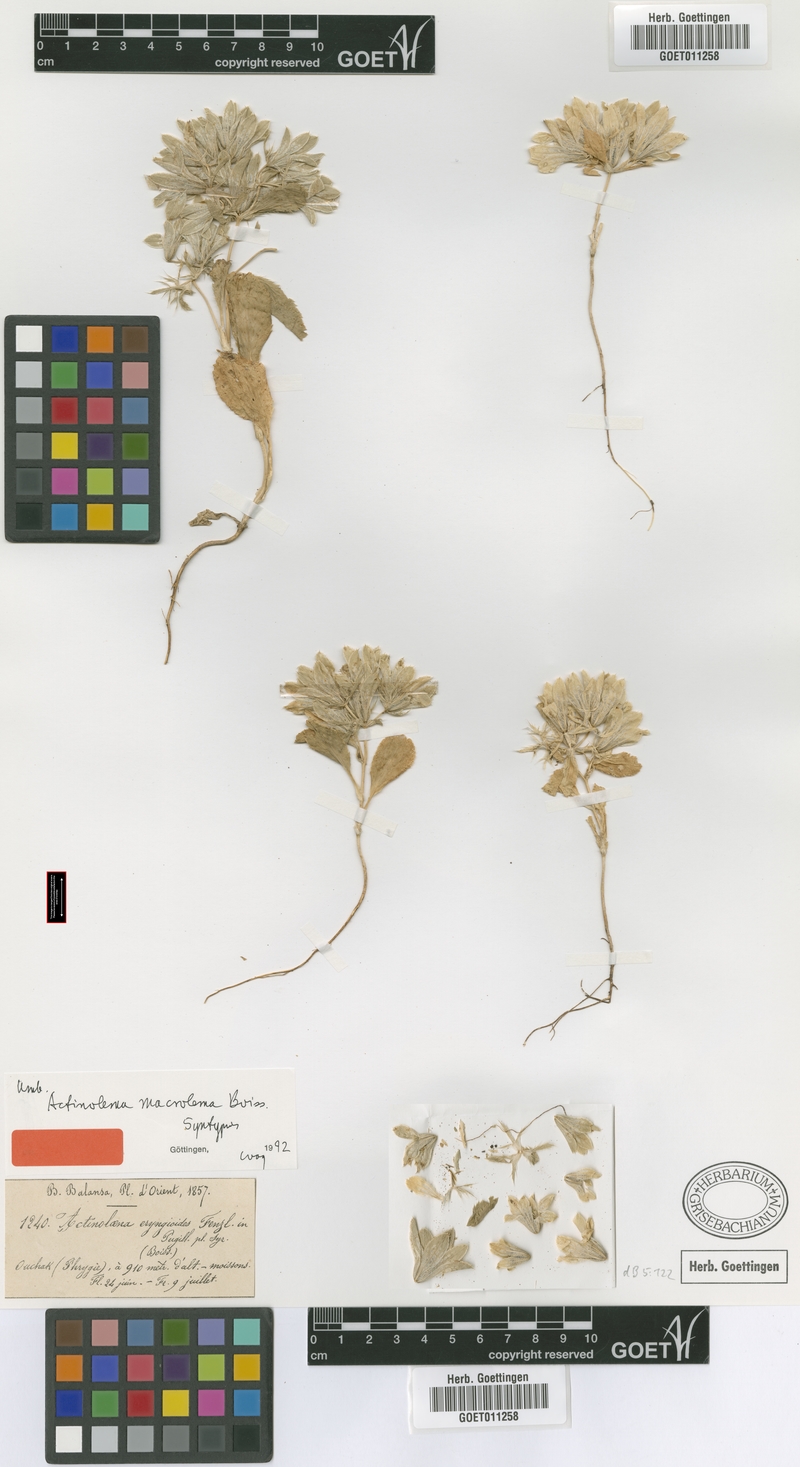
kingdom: Plantae
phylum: Tracheophyta
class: Magnoliopsida
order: Apiales
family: Apiaceae
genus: Actinolema
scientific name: Actinolema macrolema
